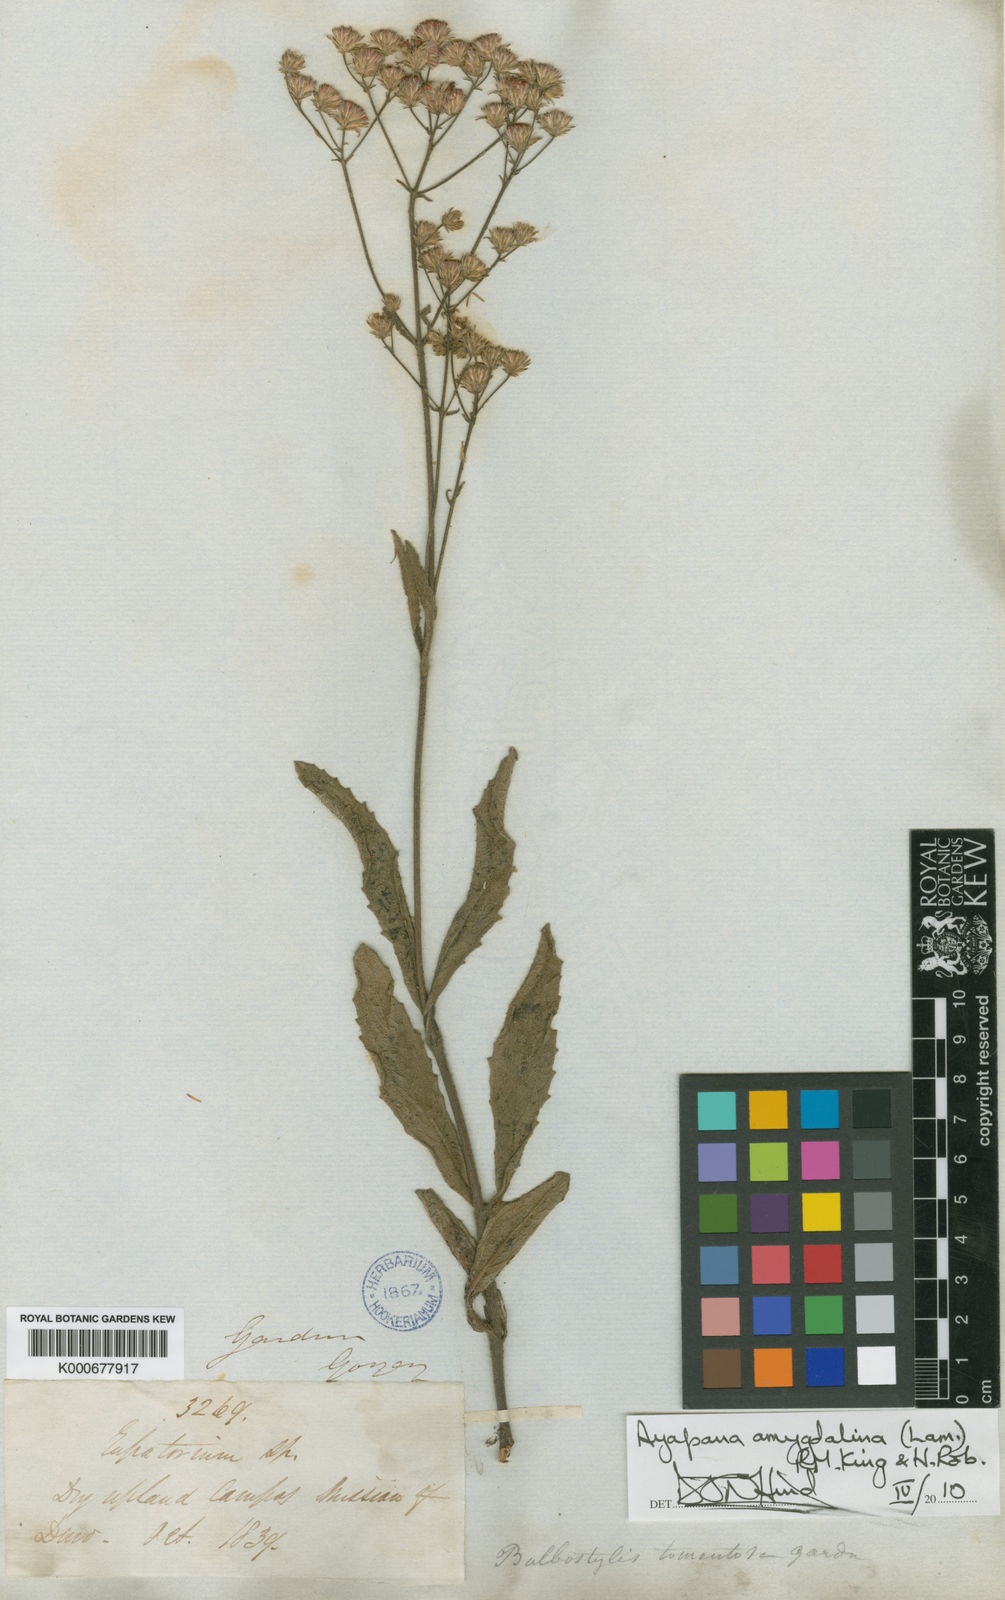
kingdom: Plantae
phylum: Tracheophyta
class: Magnoliopsida
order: Asterales
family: Asteraceae
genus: Ayapana
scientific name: Ayapana amygdalina
